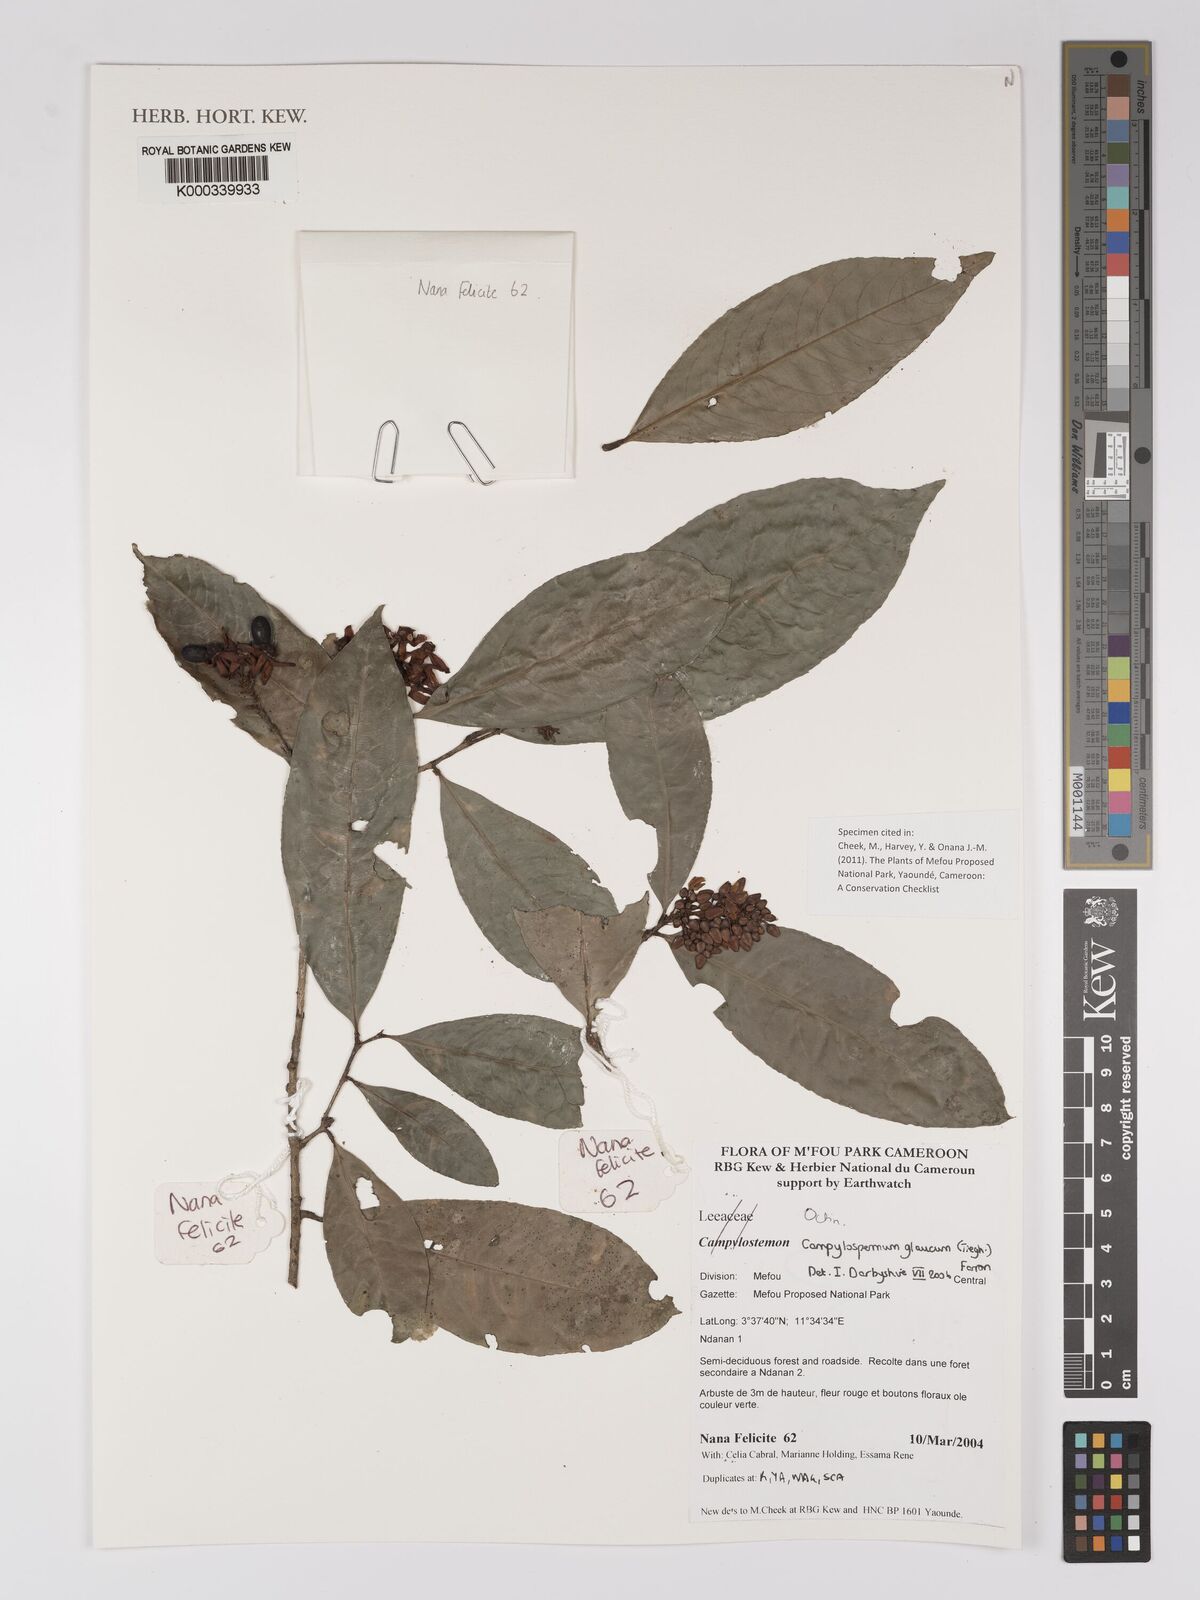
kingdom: Plantae
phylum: Tracheophyta
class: Magnoliopsida
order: Malpighiales
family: Ochnaceae
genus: Campylospermum
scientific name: Campylospermum glaucum
